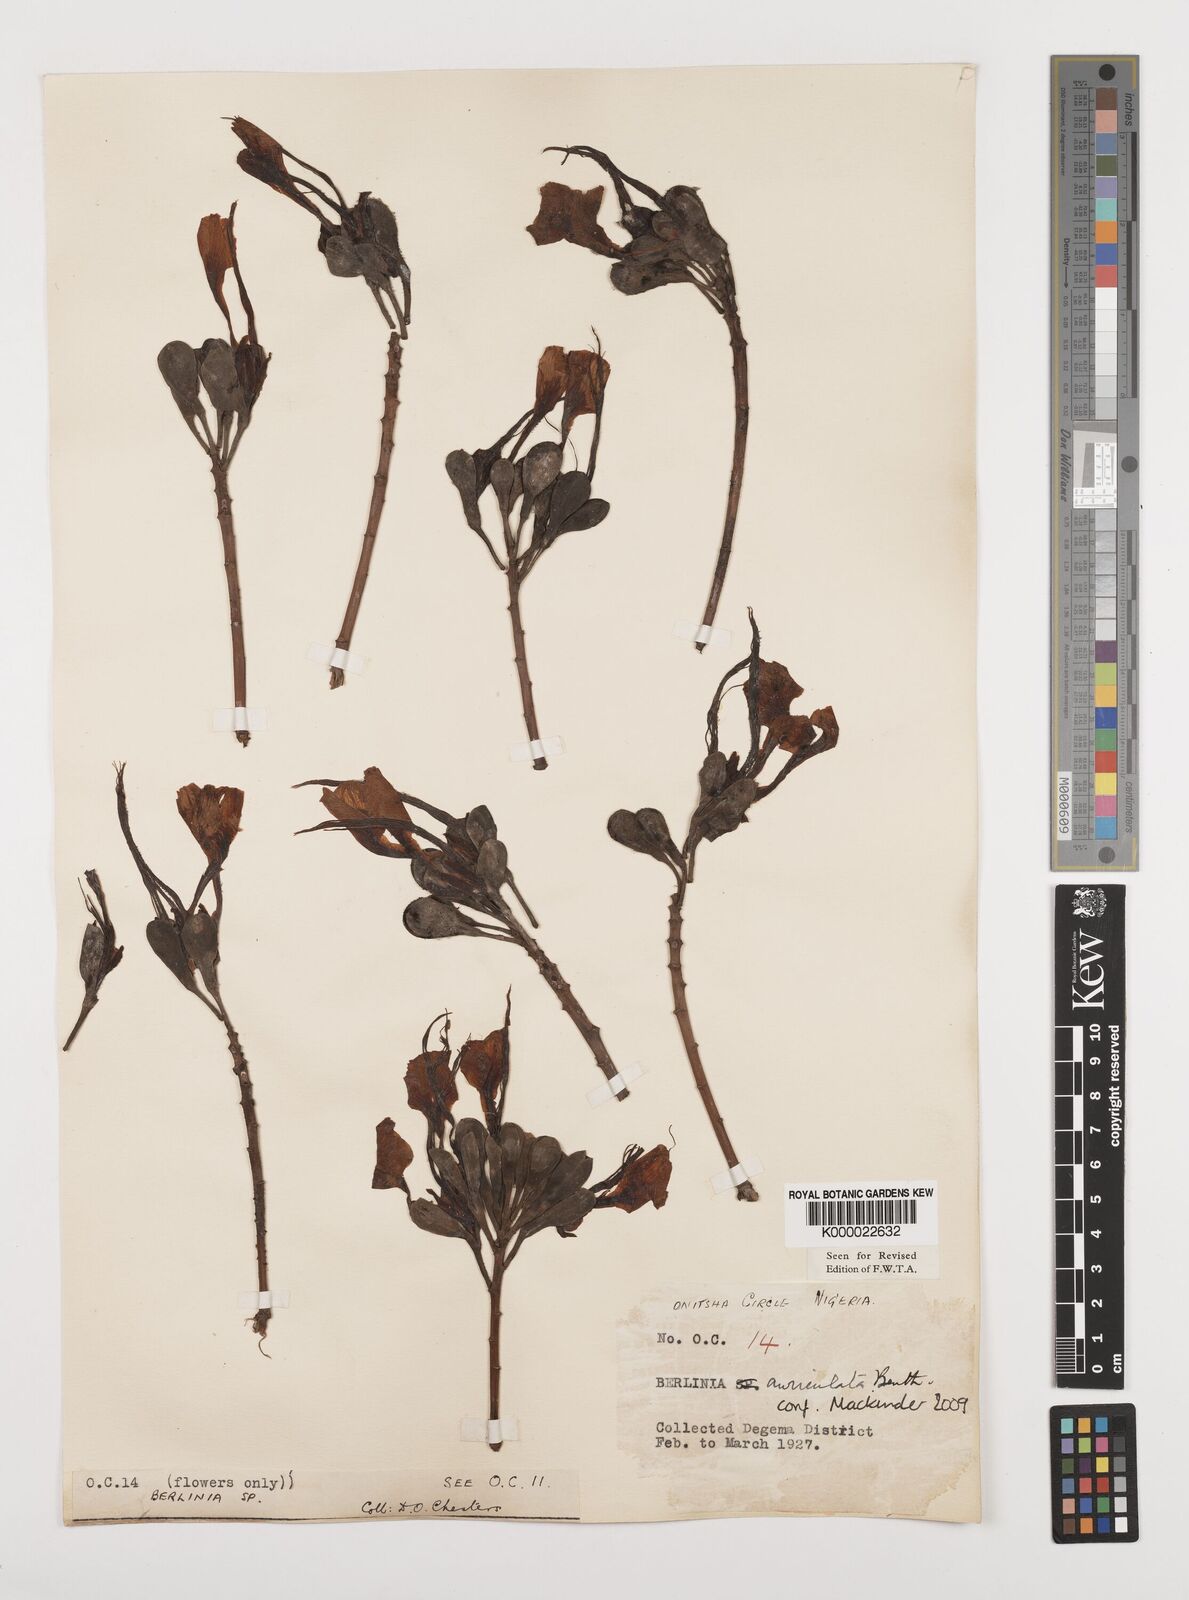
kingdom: Plantae
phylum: Tracheophyta
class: Magnoliopsida
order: Fabales
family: Fabaceae
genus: Berlinia
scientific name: Berlinia auriculata
